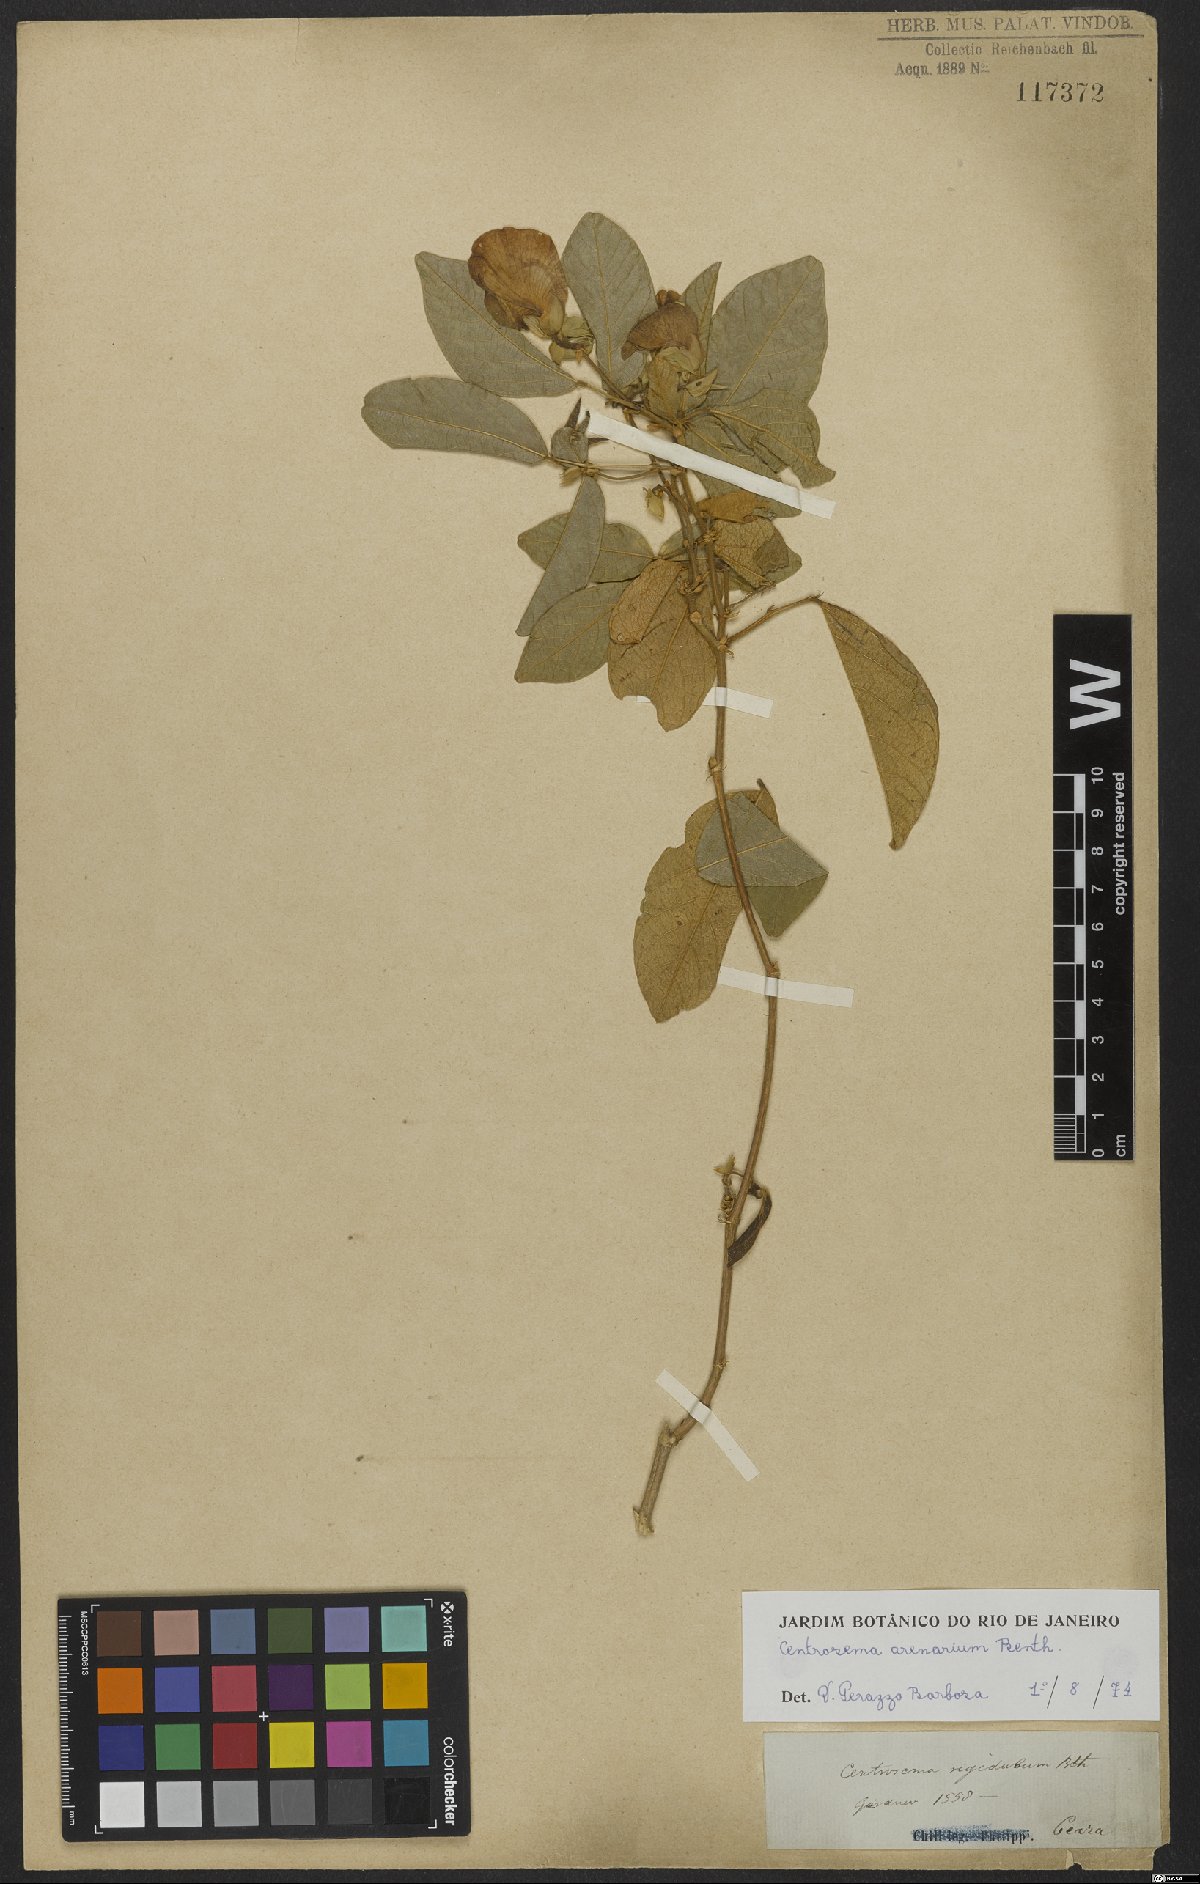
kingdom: Plantae
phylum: Tracheophyta
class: Magnoliopsida
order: Fabales
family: Fabaceae
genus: Centrosema
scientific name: Centrosema arenarium
